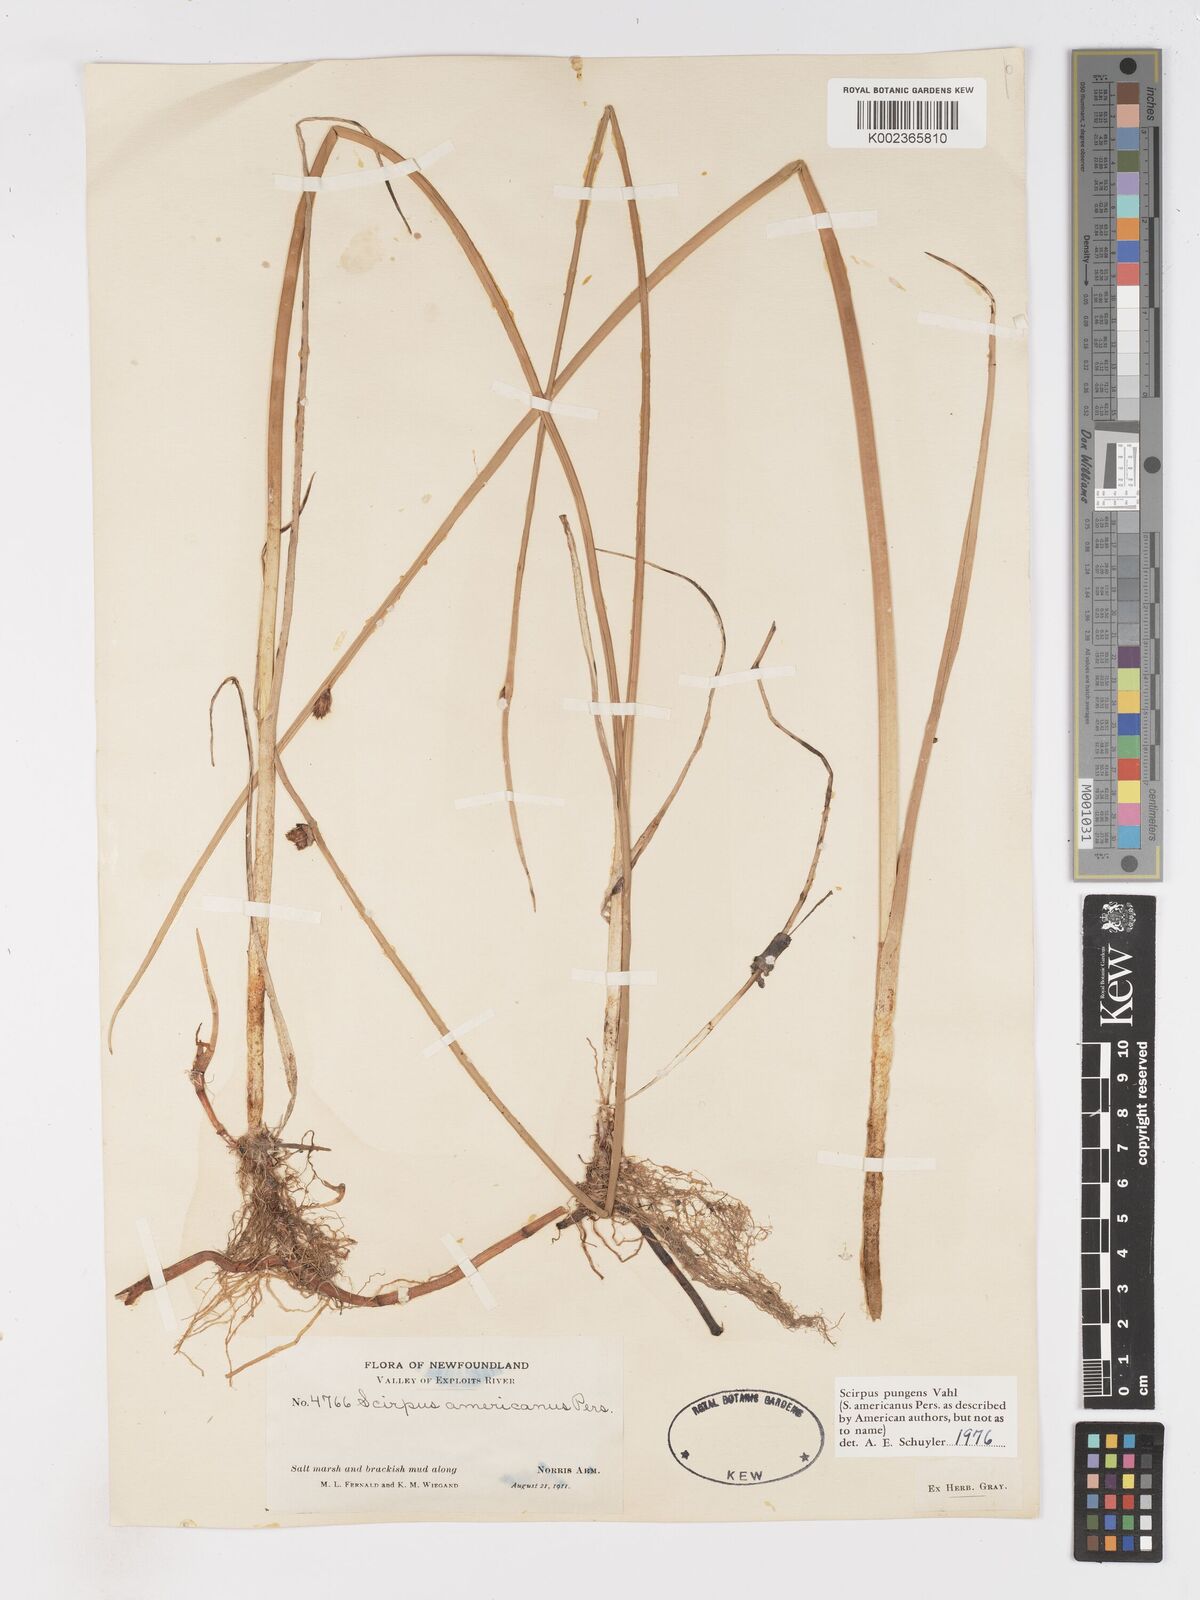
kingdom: Plantae
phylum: Tracheophyta
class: Liliopsida
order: Poales
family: Cyperaceae
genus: Schoenoplectus
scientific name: Schoenoplectus pungens
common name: Sharp club-rush
